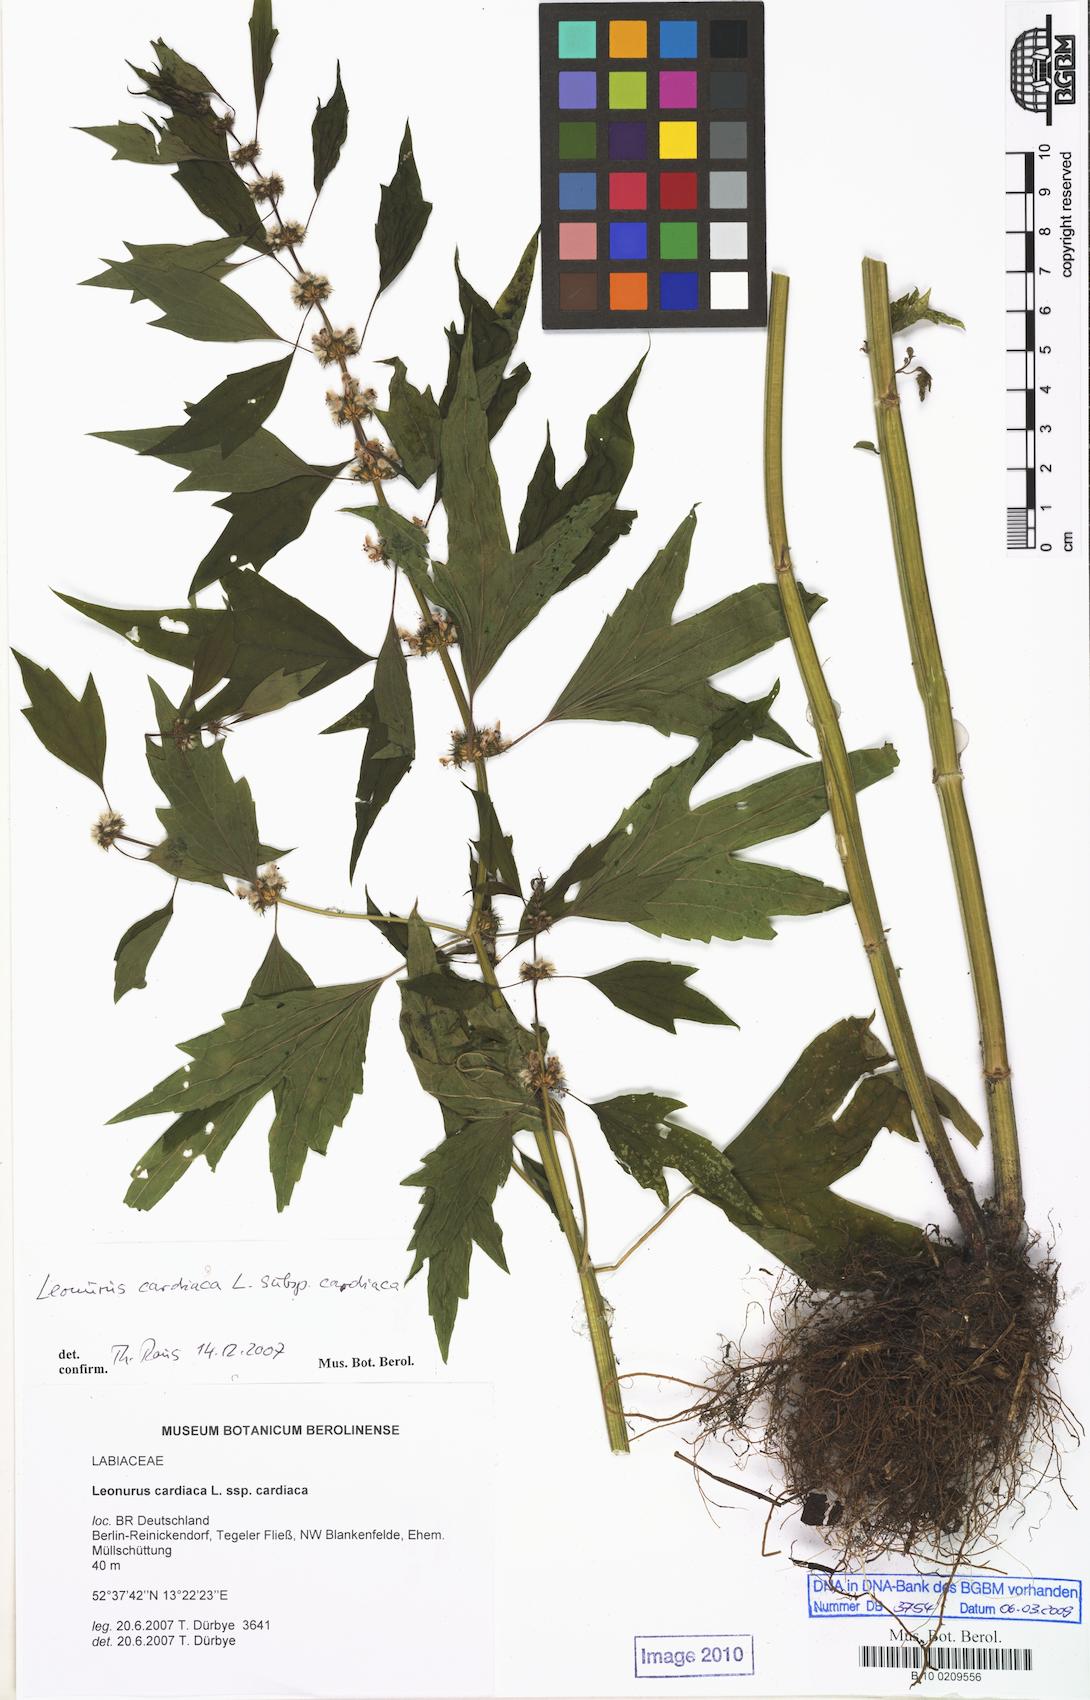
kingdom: Plantae
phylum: Tracheophyta
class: Magnoliopsida
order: Lamiales
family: Lamiaceae
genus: Leonurus
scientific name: Leonurus cardiaca
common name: Motherwort
